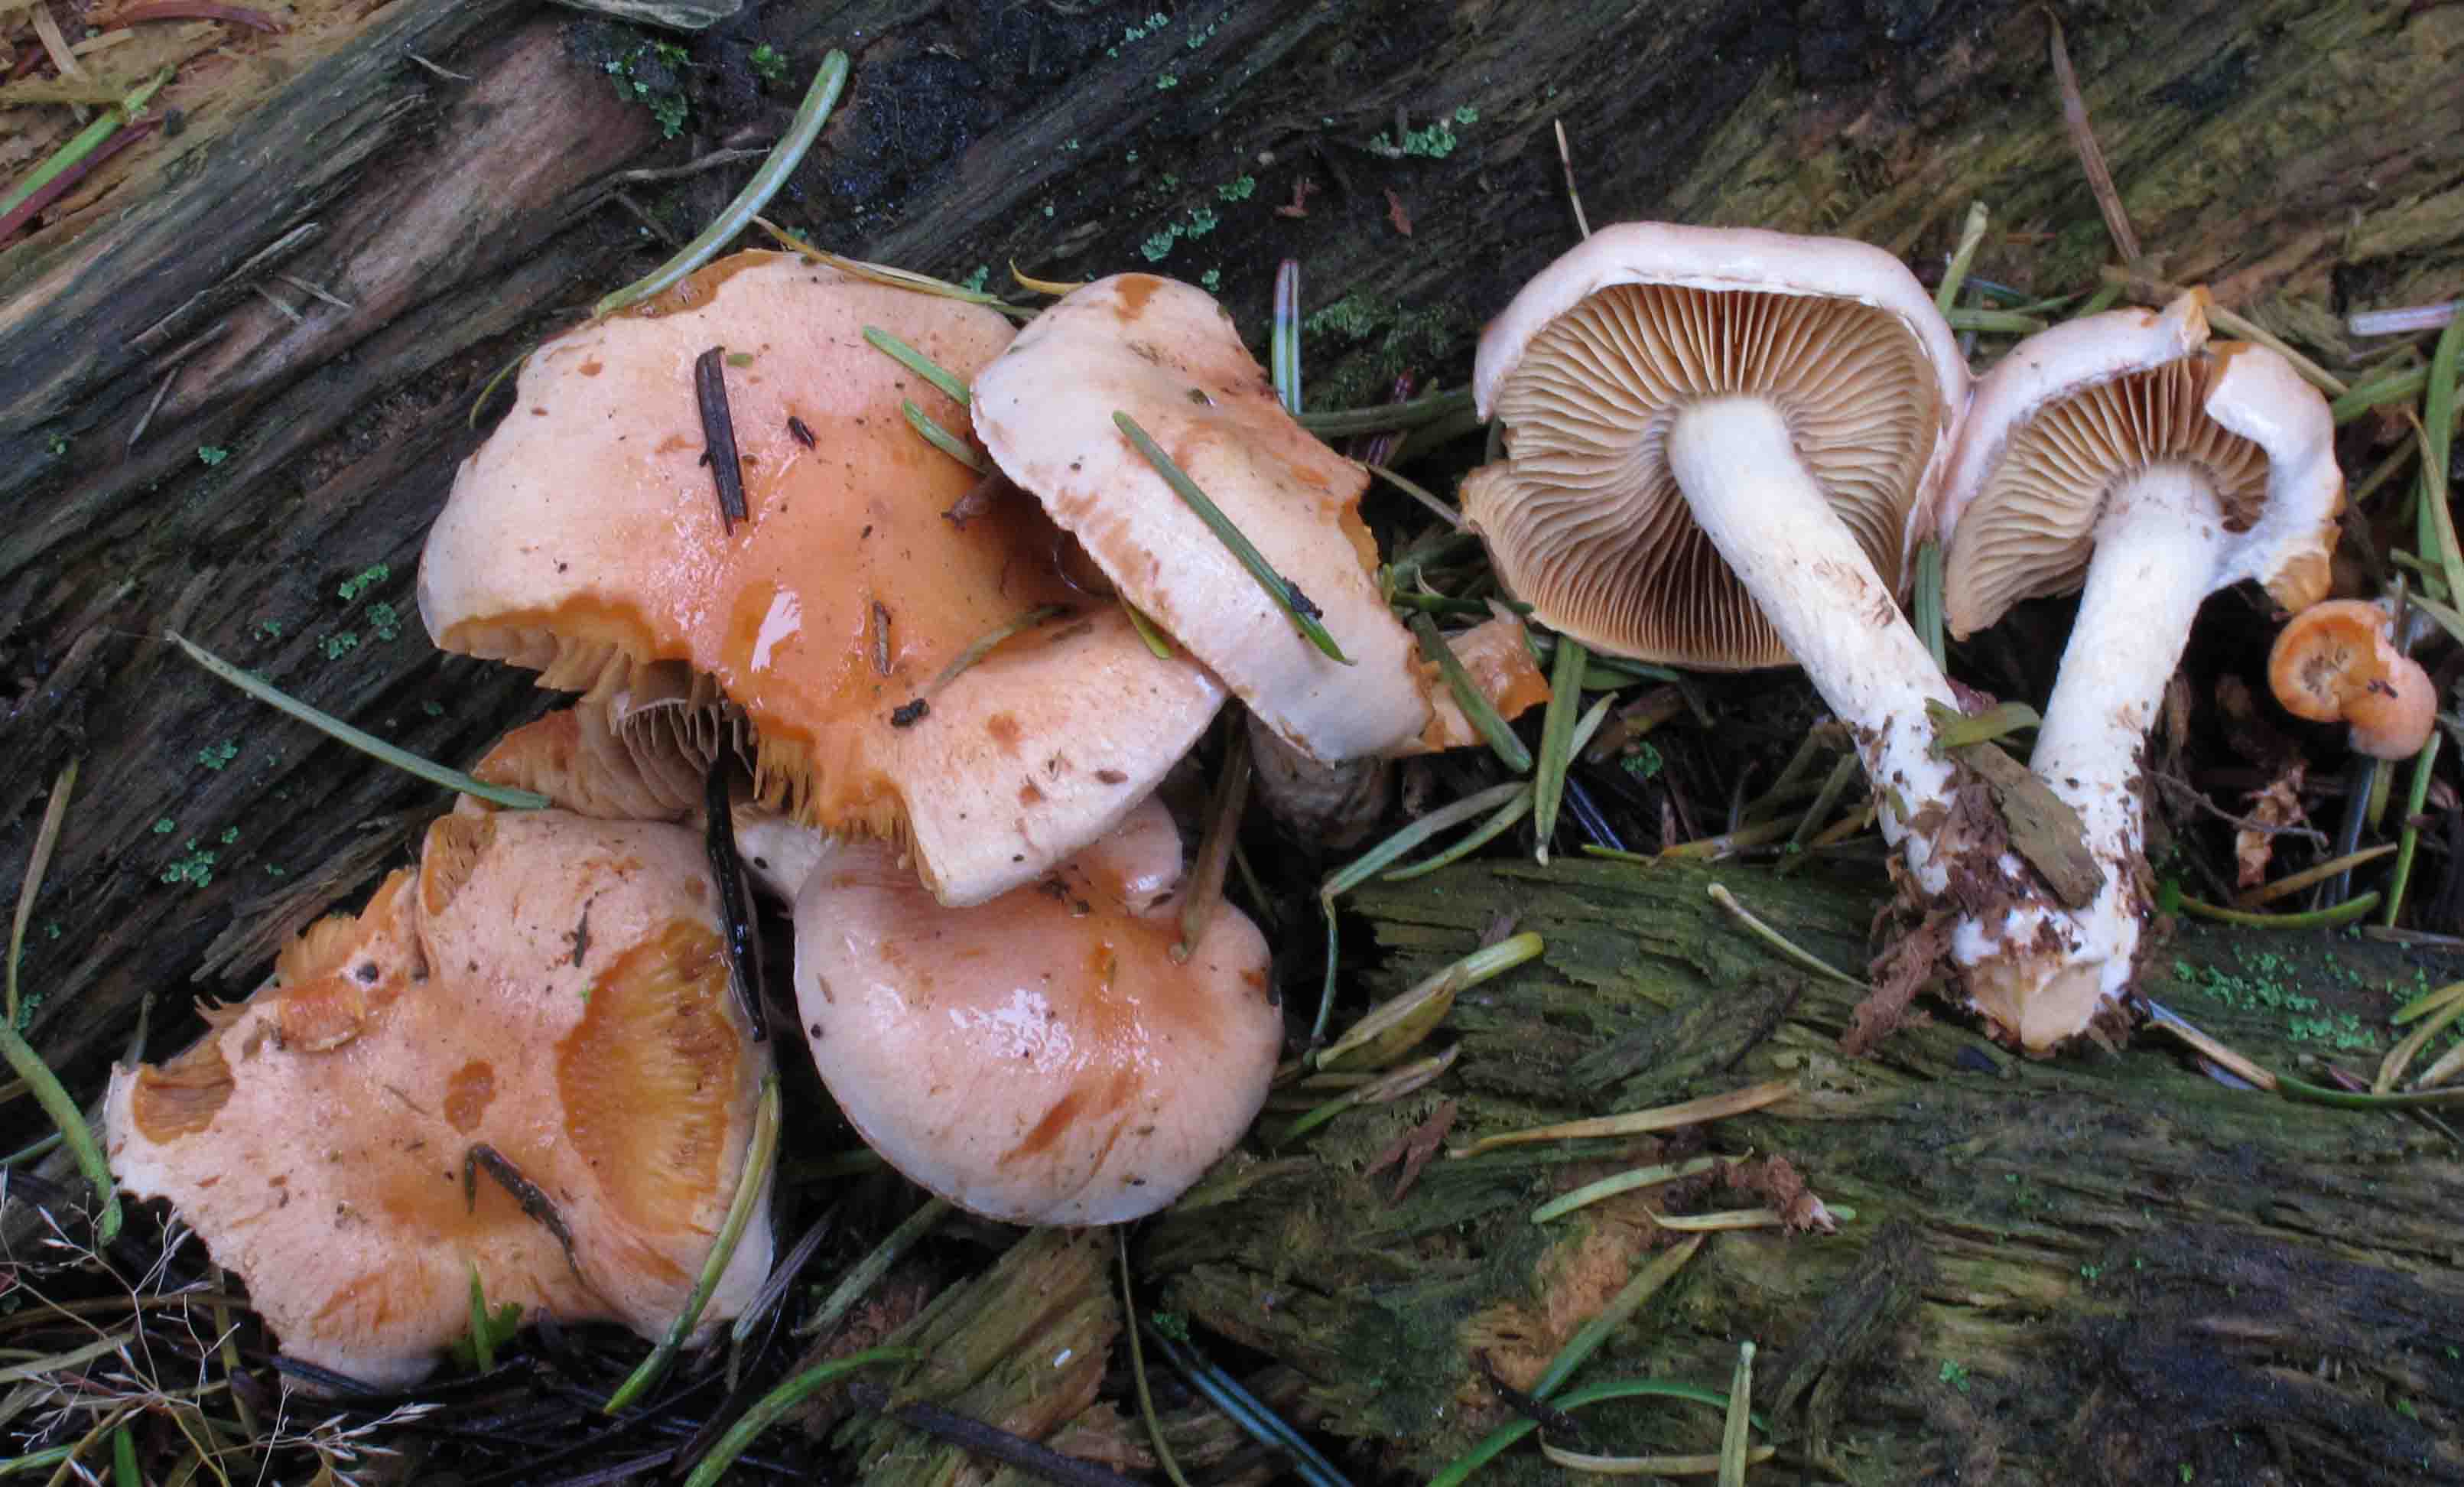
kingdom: Fungi
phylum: Basidiomycota
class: Agaricomycetes
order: Agaricales
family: Strophariaceae
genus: Pyrrhulomyces
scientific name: Pyrrhulomyces astragalinus
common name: safran-skælhat
